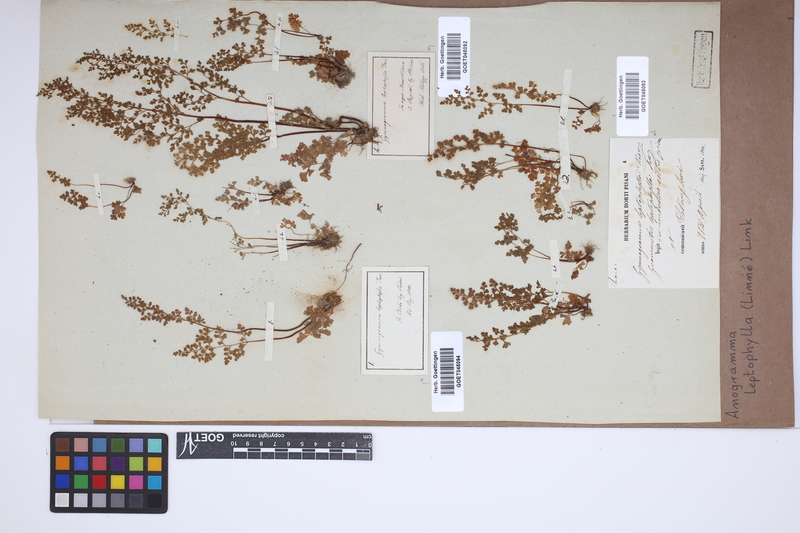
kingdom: Plantae
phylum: Tracheophyta
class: Polypodiopsida
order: Polypodiales
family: Pteridaceae
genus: Anogramma
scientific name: Anogramma leptophylla
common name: Jersey fern
